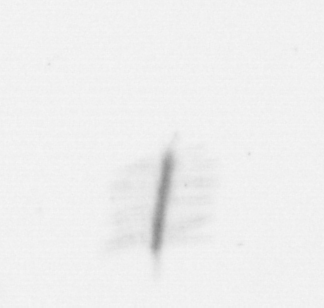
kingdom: Chromista
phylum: Ochrophyta
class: Bacillariophyceae
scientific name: Bacillariophyceae
